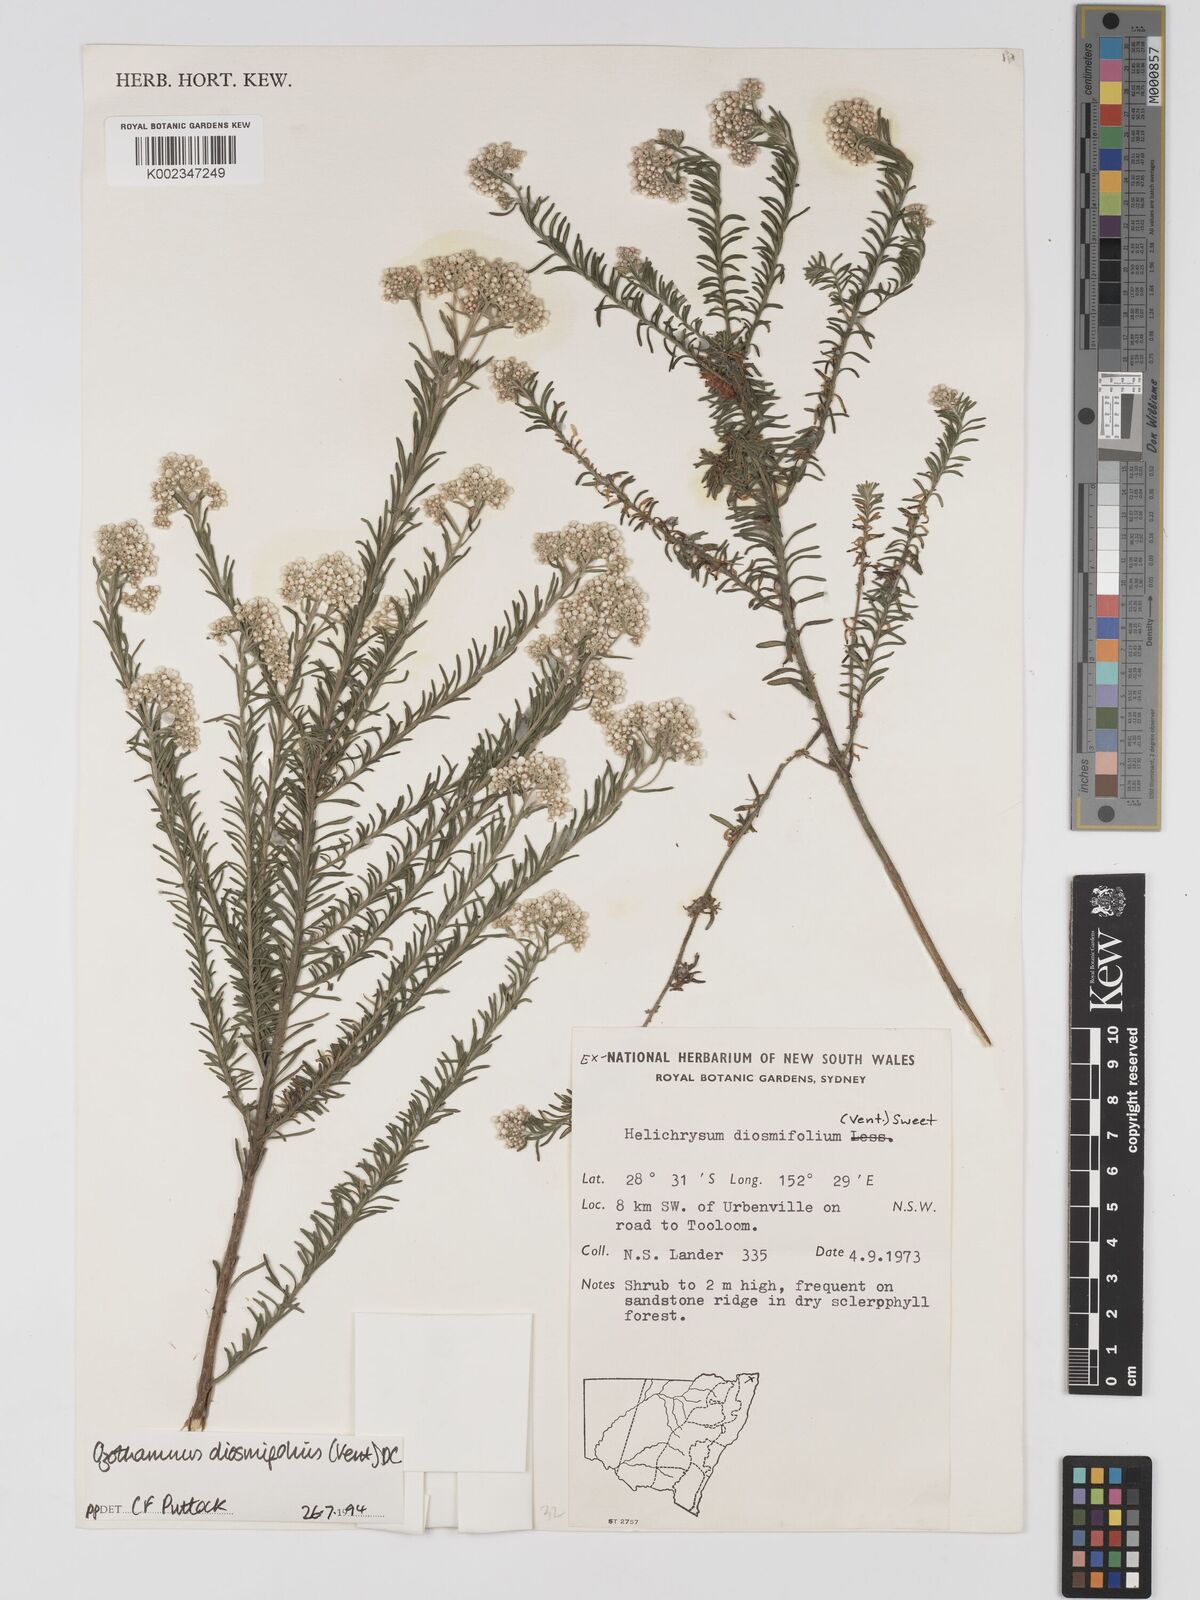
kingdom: Plantae
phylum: Tracheophyta
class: Magnoliopsida
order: Asterales
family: Asteraceae
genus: Ozothamnus
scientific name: Ozothamnus diosmifolius
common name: White-dogwood
